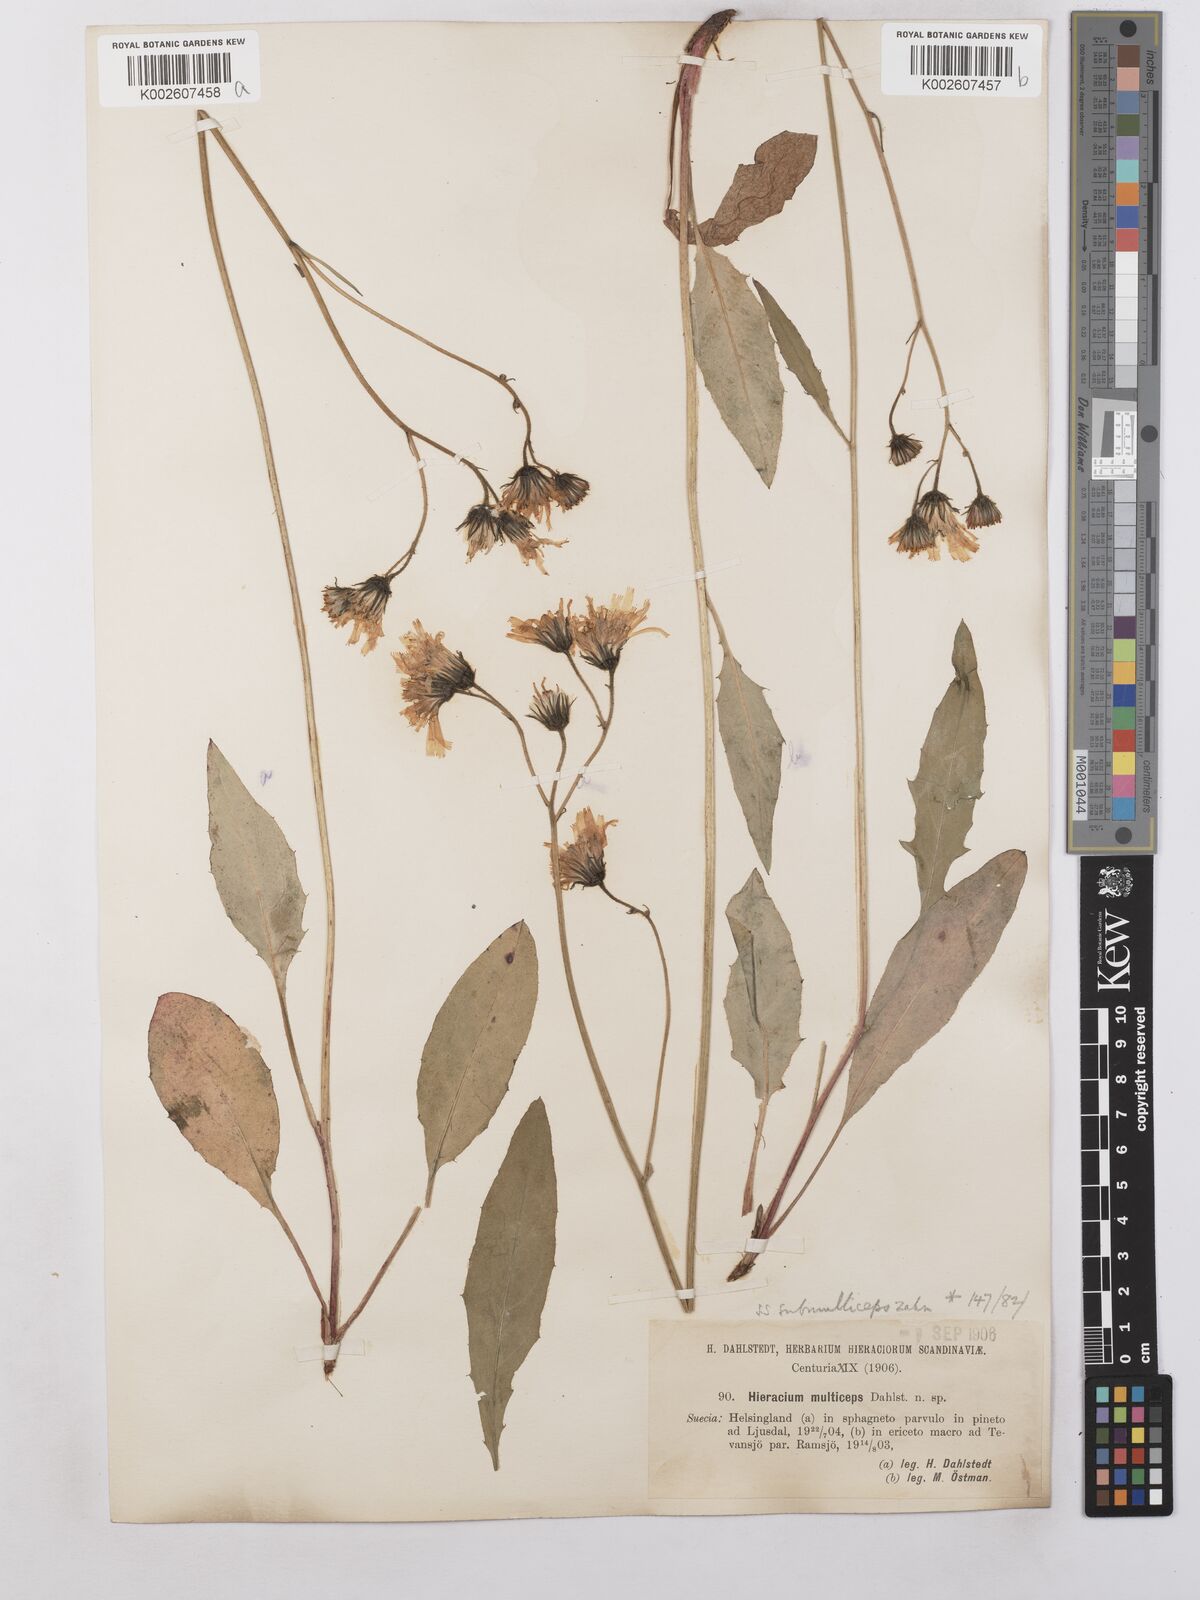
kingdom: Plantae
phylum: Tracheophyta
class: Magnoliopsida
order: Asterales
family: Asteraceae
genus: Hieracium
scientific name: Hieracium caesium
